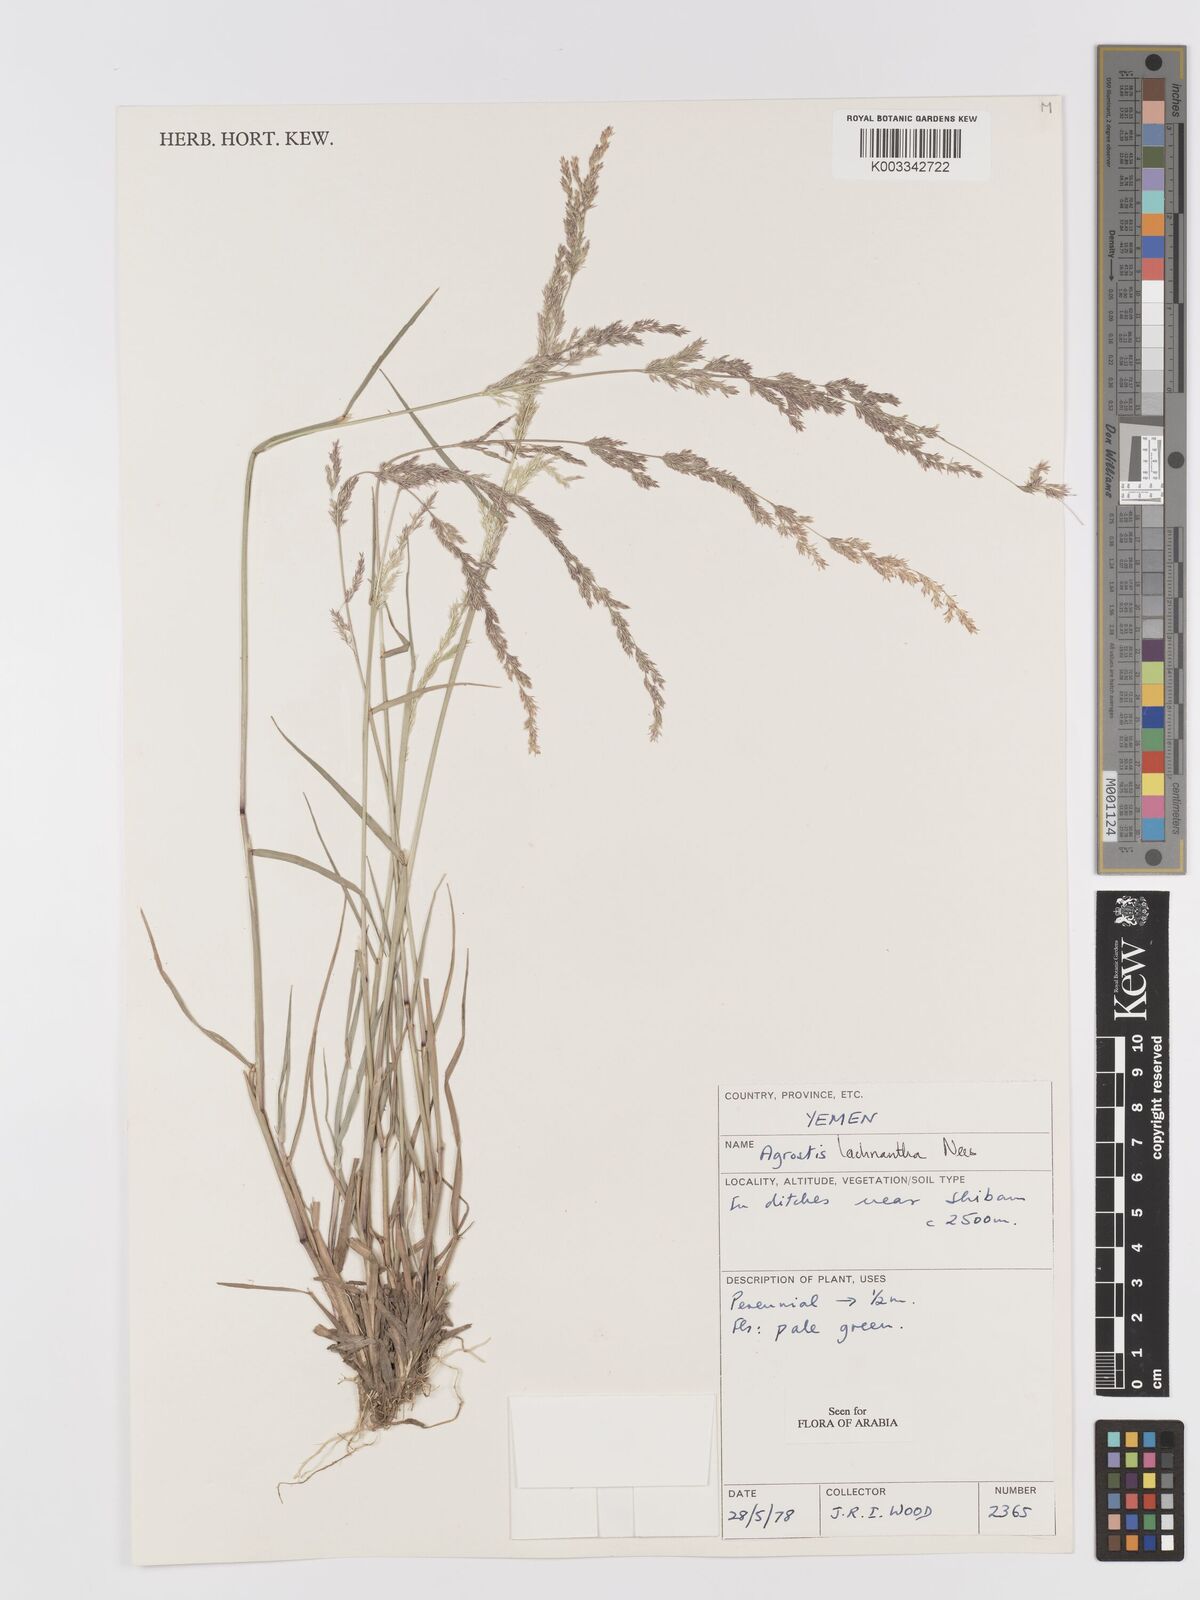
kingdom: Plantae
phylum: Tracheophyta
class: Liliopsida
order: Poales
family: Poaceae
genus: Lachnagrostis
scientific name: Lachnagrostis lachnantha
